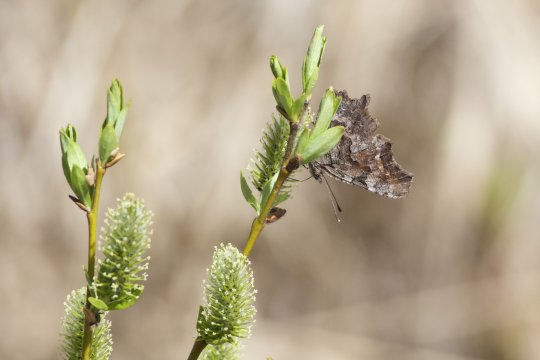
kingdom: Animalia
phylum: Arthropoda
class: Insecta
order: Lepidoptera
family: Nymphalidae
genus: Polygonia
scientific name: Polygonia
